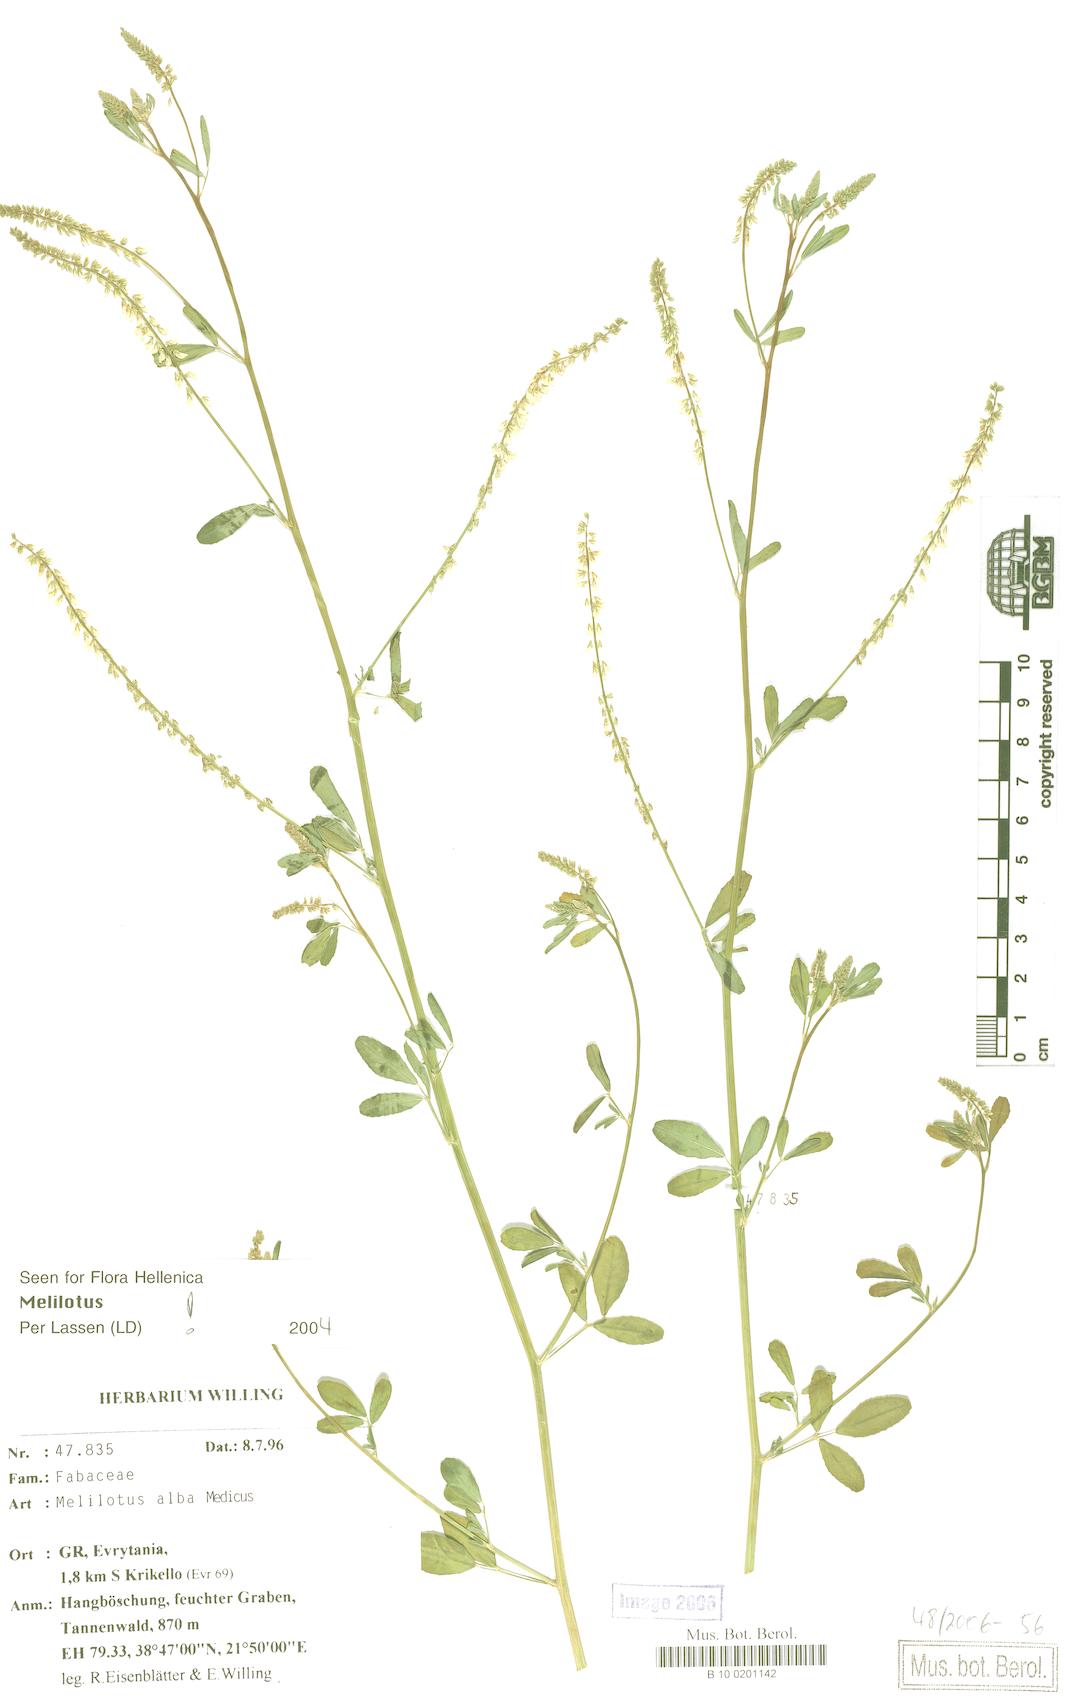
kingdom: Plantae
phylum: Tracheophyta
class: Magnoliopsida
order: Fabales
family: Fabaceae
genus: Melilotus
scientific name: Melilotus albus
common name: White melilot
